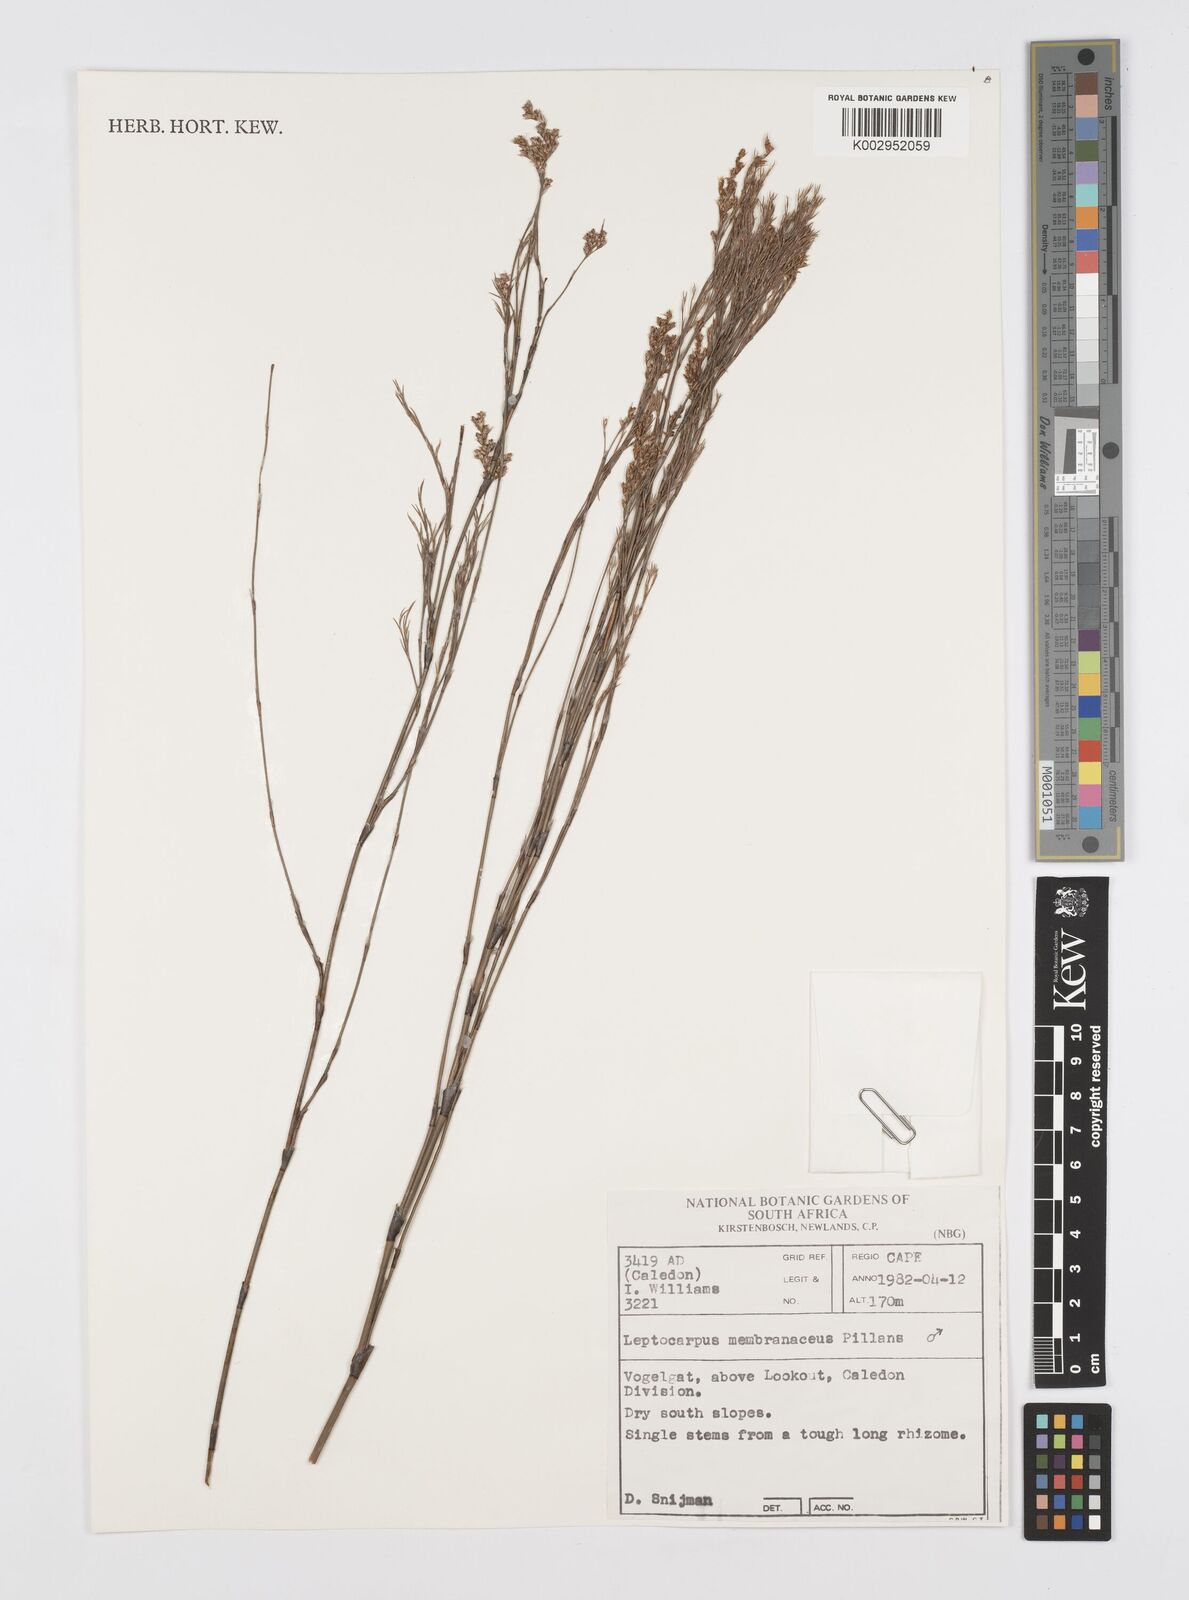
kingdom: Plantae
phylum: Tracheophyta
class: Liliopsida
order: Poales
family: Restionaceae
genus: Elegia
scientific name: Elegia intermedia
